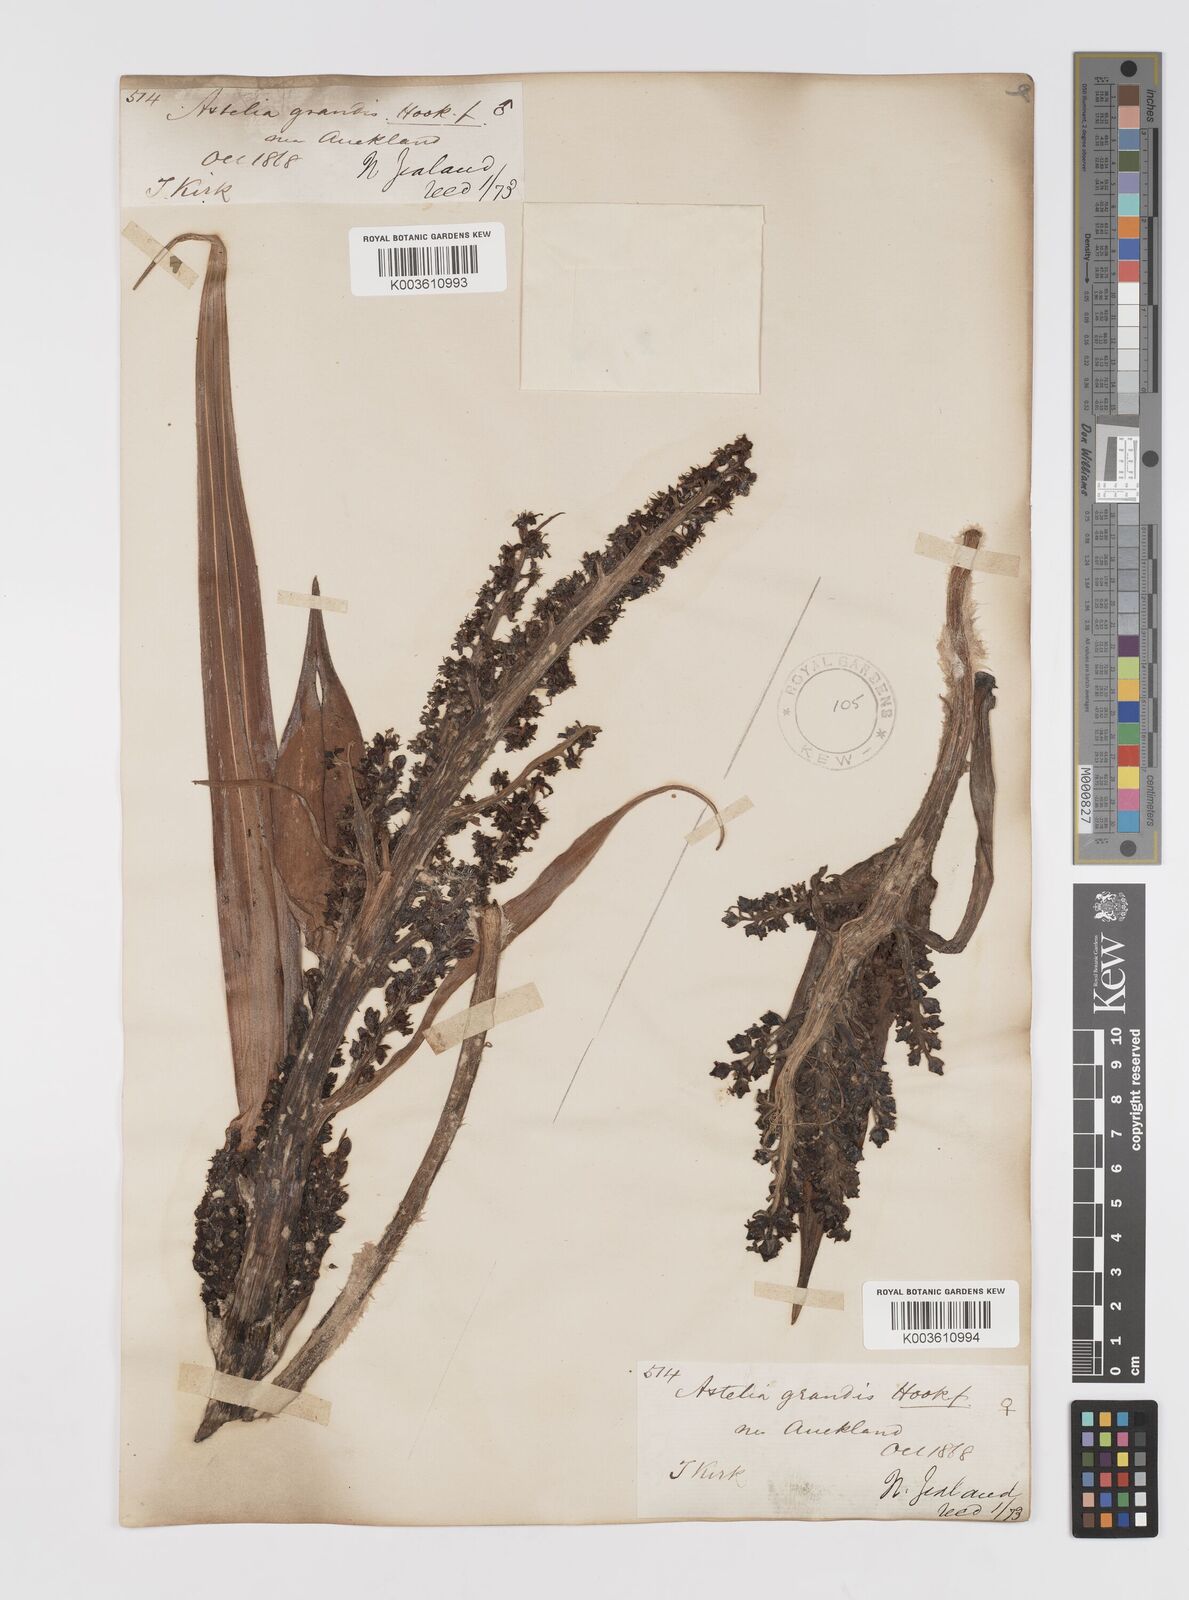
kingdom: Plantae
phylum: Tracheophyta
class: Liliopsida
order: Asparagales
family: Asteliaceae
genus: Astelia
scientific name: Astelia nervosa
